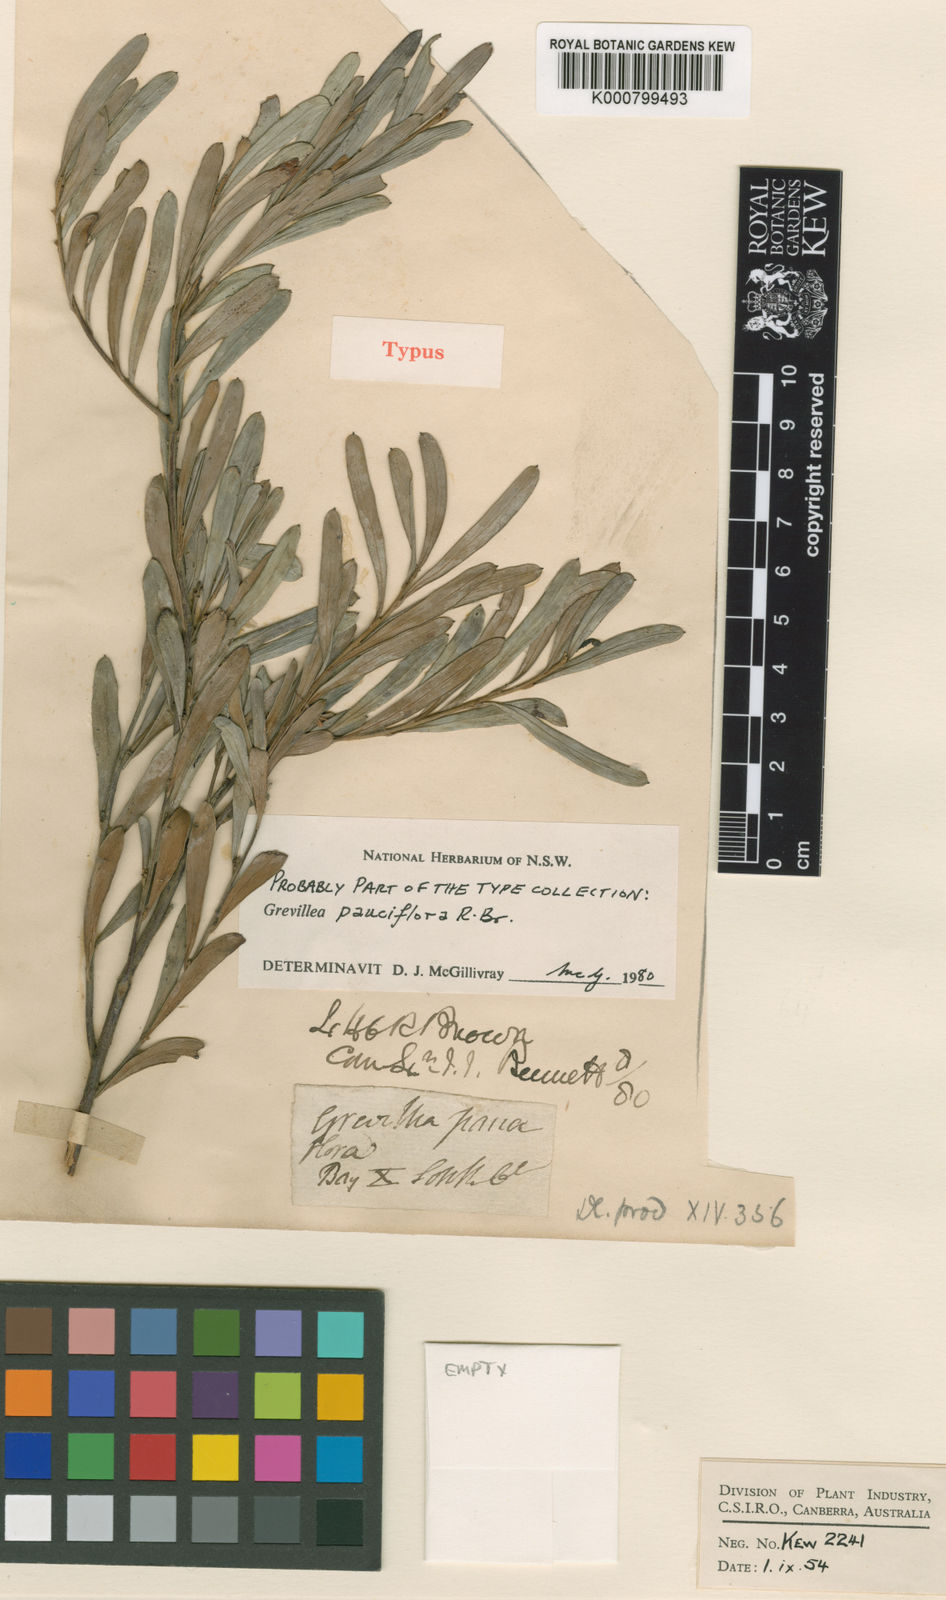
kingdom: Plantae
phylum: Tracheophyta
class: Magnoliopsida
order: Proteales
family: Proteaceae
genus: Grevillea
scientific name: Grevillea pauciflora
